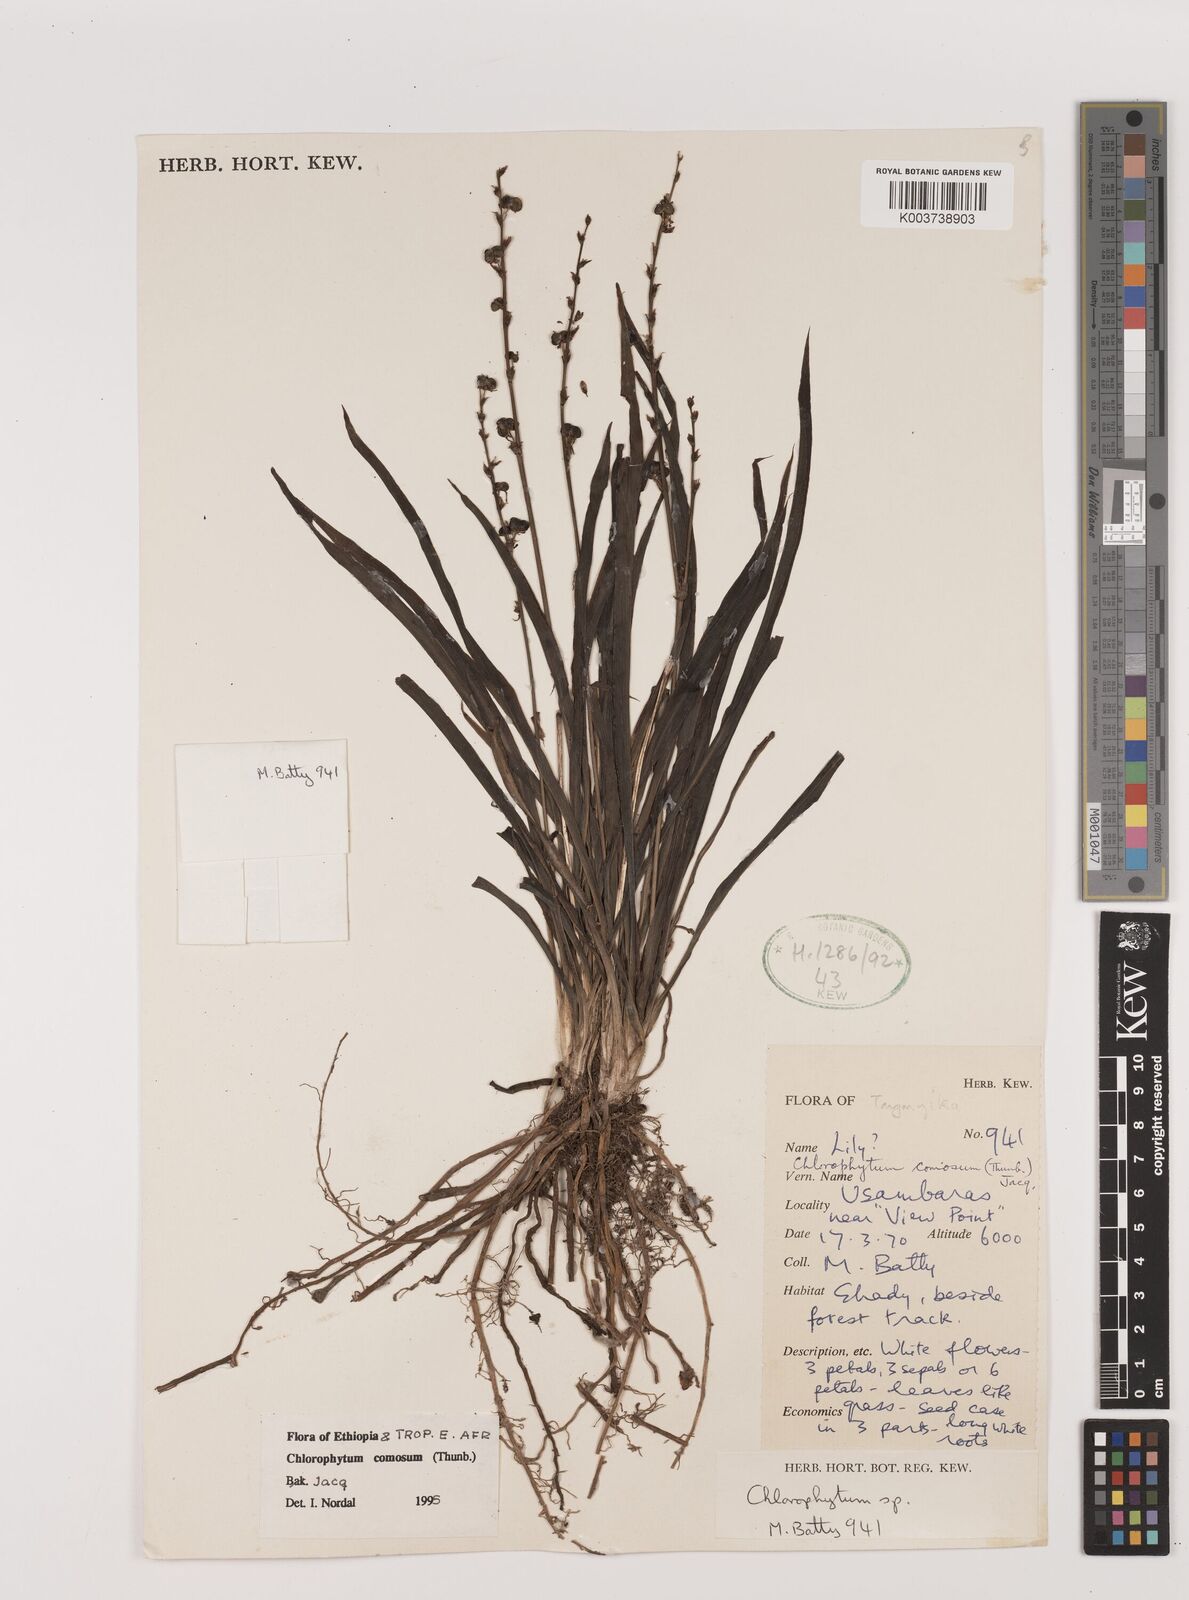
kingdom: Plantae
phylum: Tracheophyta
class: Liliopsida
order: Asparagales
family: Asparagaceae
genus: Chlorophytum
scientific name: Chlorophytum comosum
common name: Spider plant
